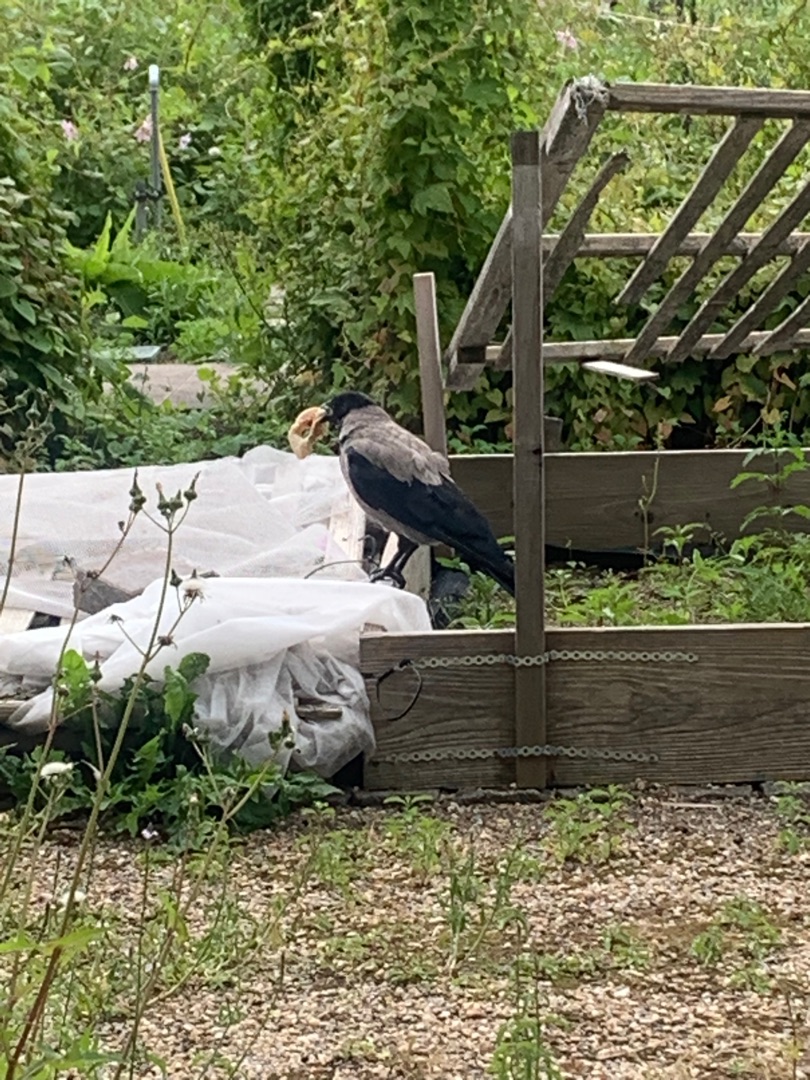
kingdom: Animalia
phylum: Chordata
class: Aves
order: Passeriformes
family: Corvidae
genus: Corvus
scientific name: Corvus cornix
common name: Gråkrage
